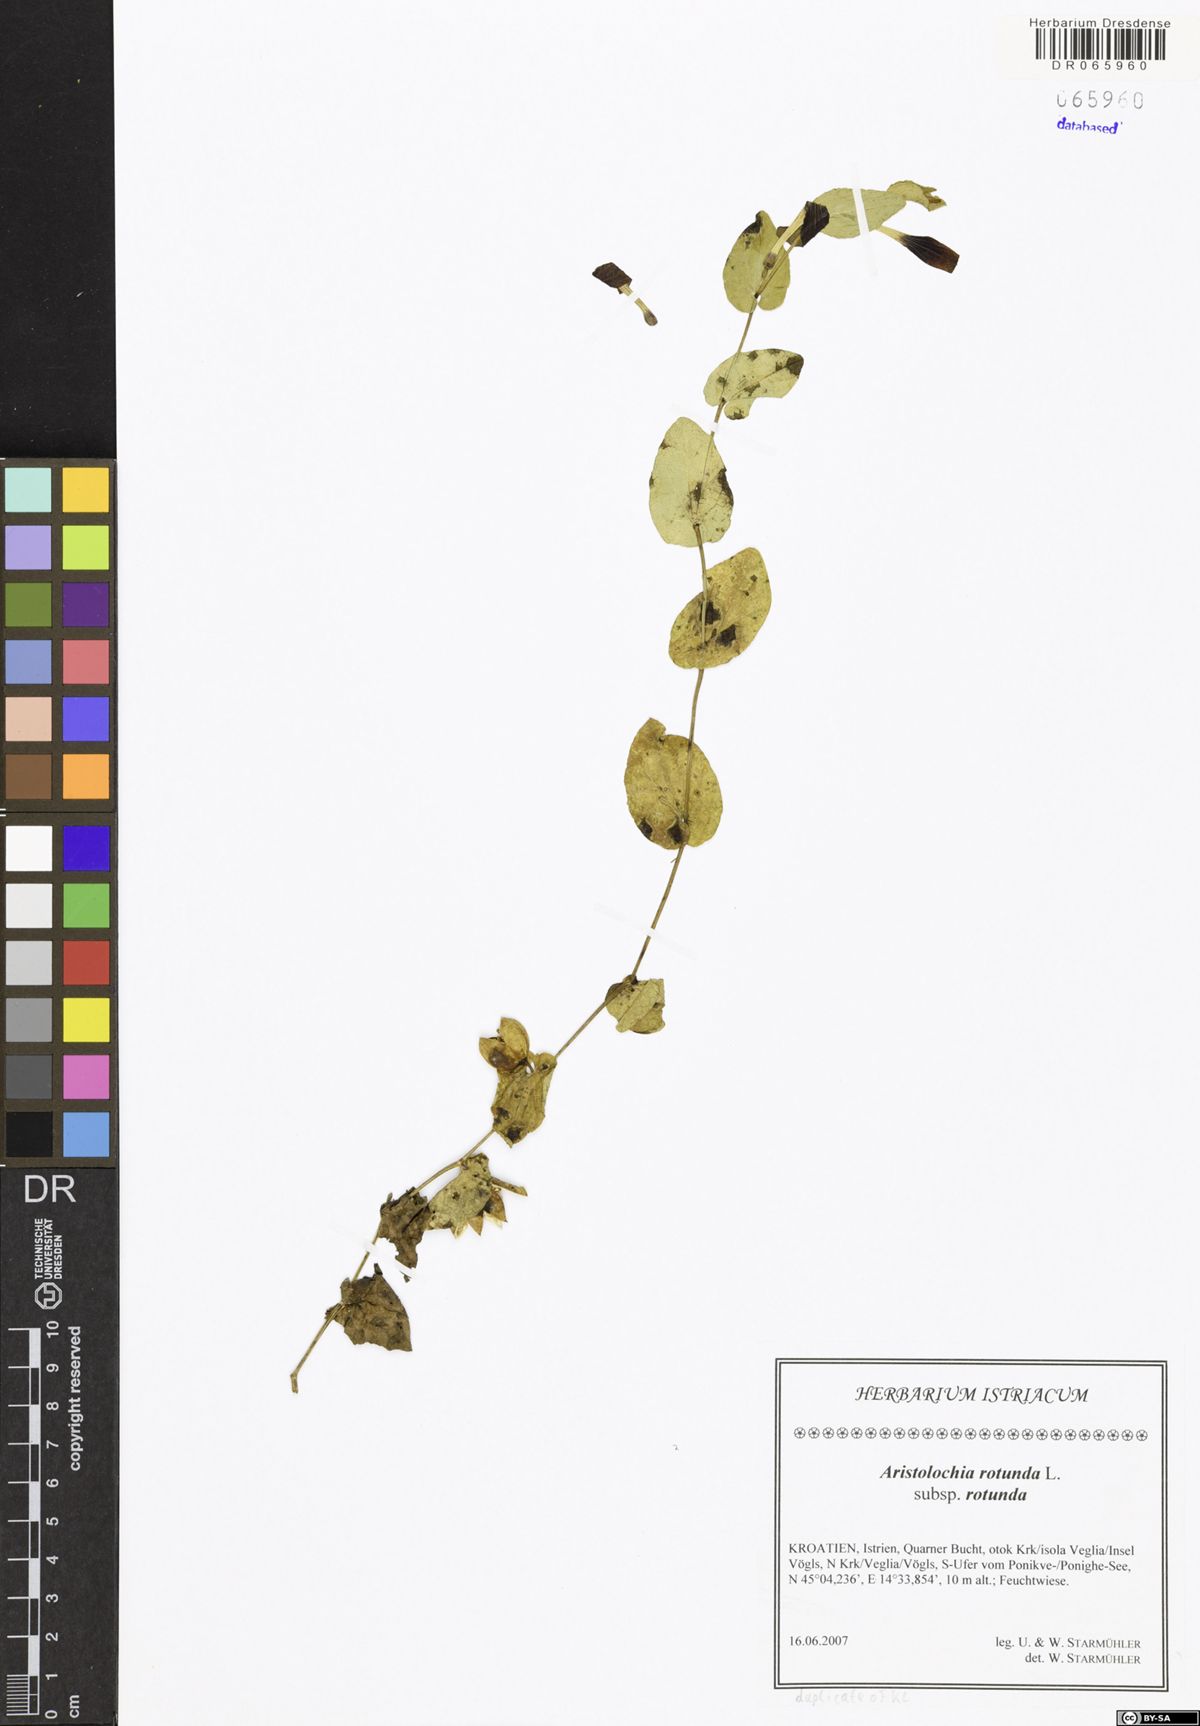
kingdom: Plantae
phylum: Tracheophyta
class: Magnoliopsida
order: Piperales
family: Aristolochiaceae
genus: Aristolochia
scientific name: Aristolochia rotunda
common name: Smearwort
